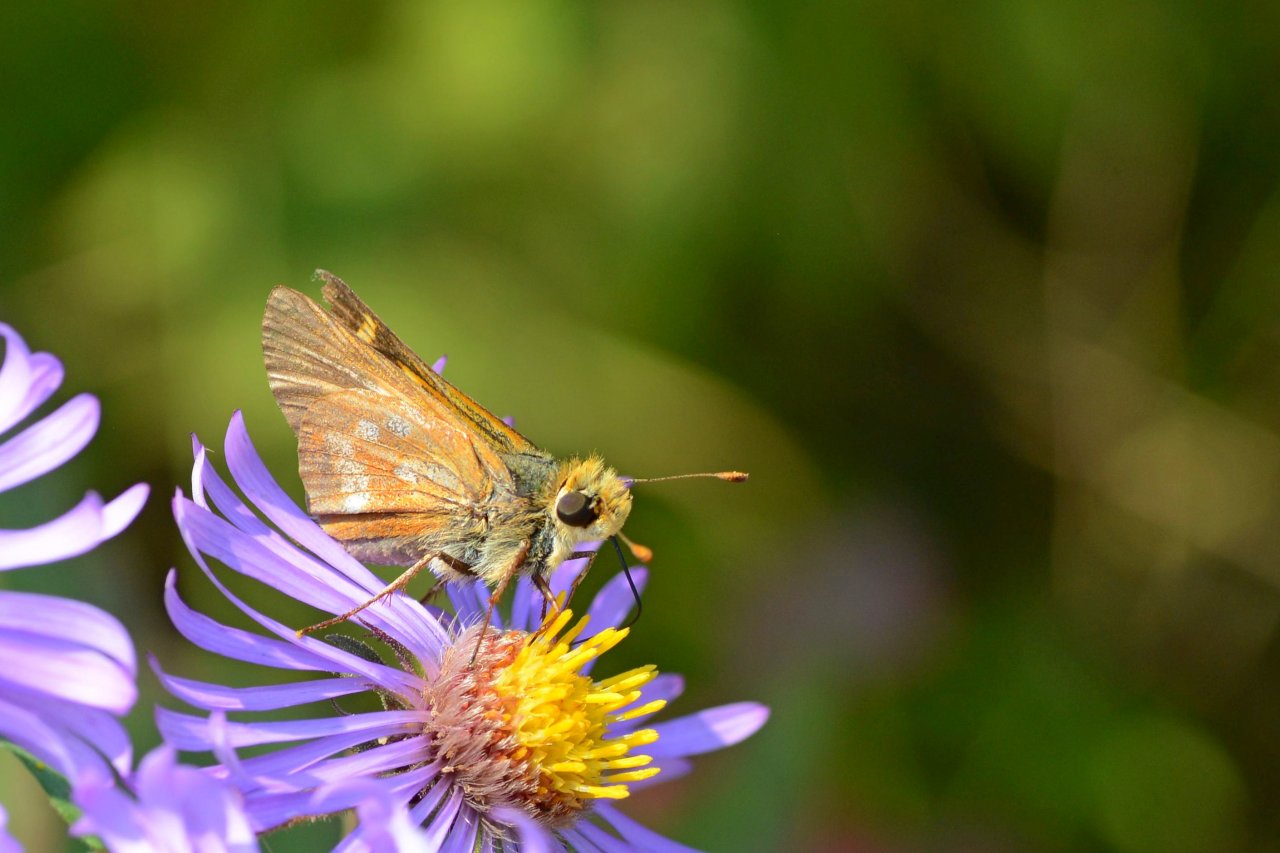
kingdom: Animalia
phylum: Arthropoda
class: Insecta
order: Lepidoptera
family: Hesperiidae
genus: Hesperia
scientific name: Hesperia leonardus
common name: Leonard's Skipper
